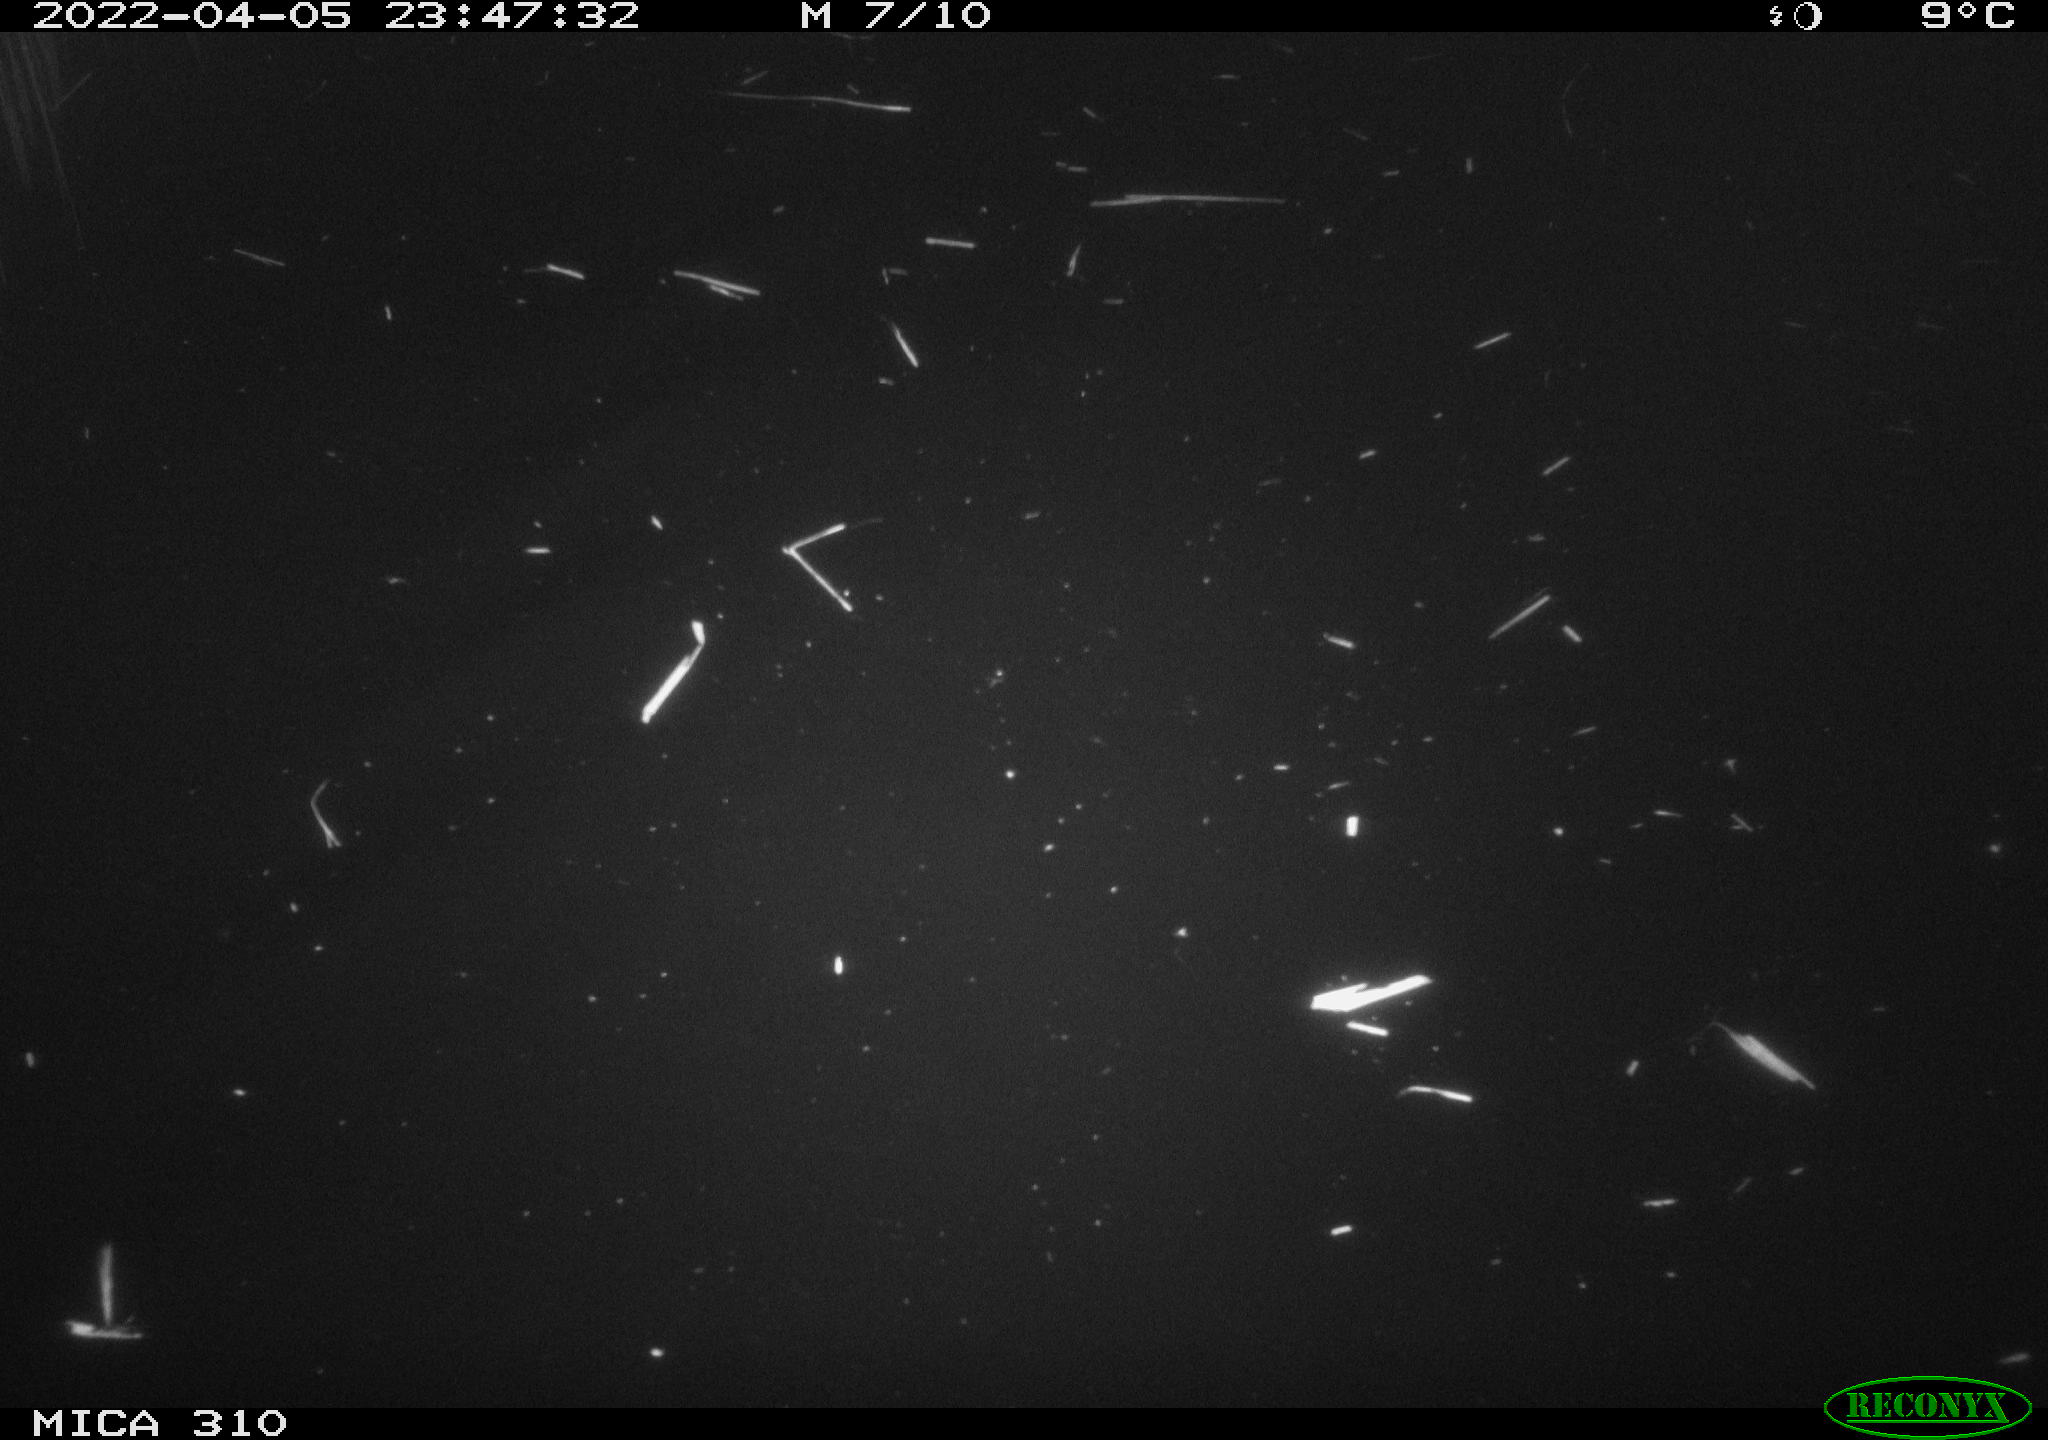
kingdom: Animalia
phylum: Chordata
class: Aves
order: Anseriformes
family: Anatidae
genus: Anas
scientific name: Anas platyrhynchos
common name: Mallard
